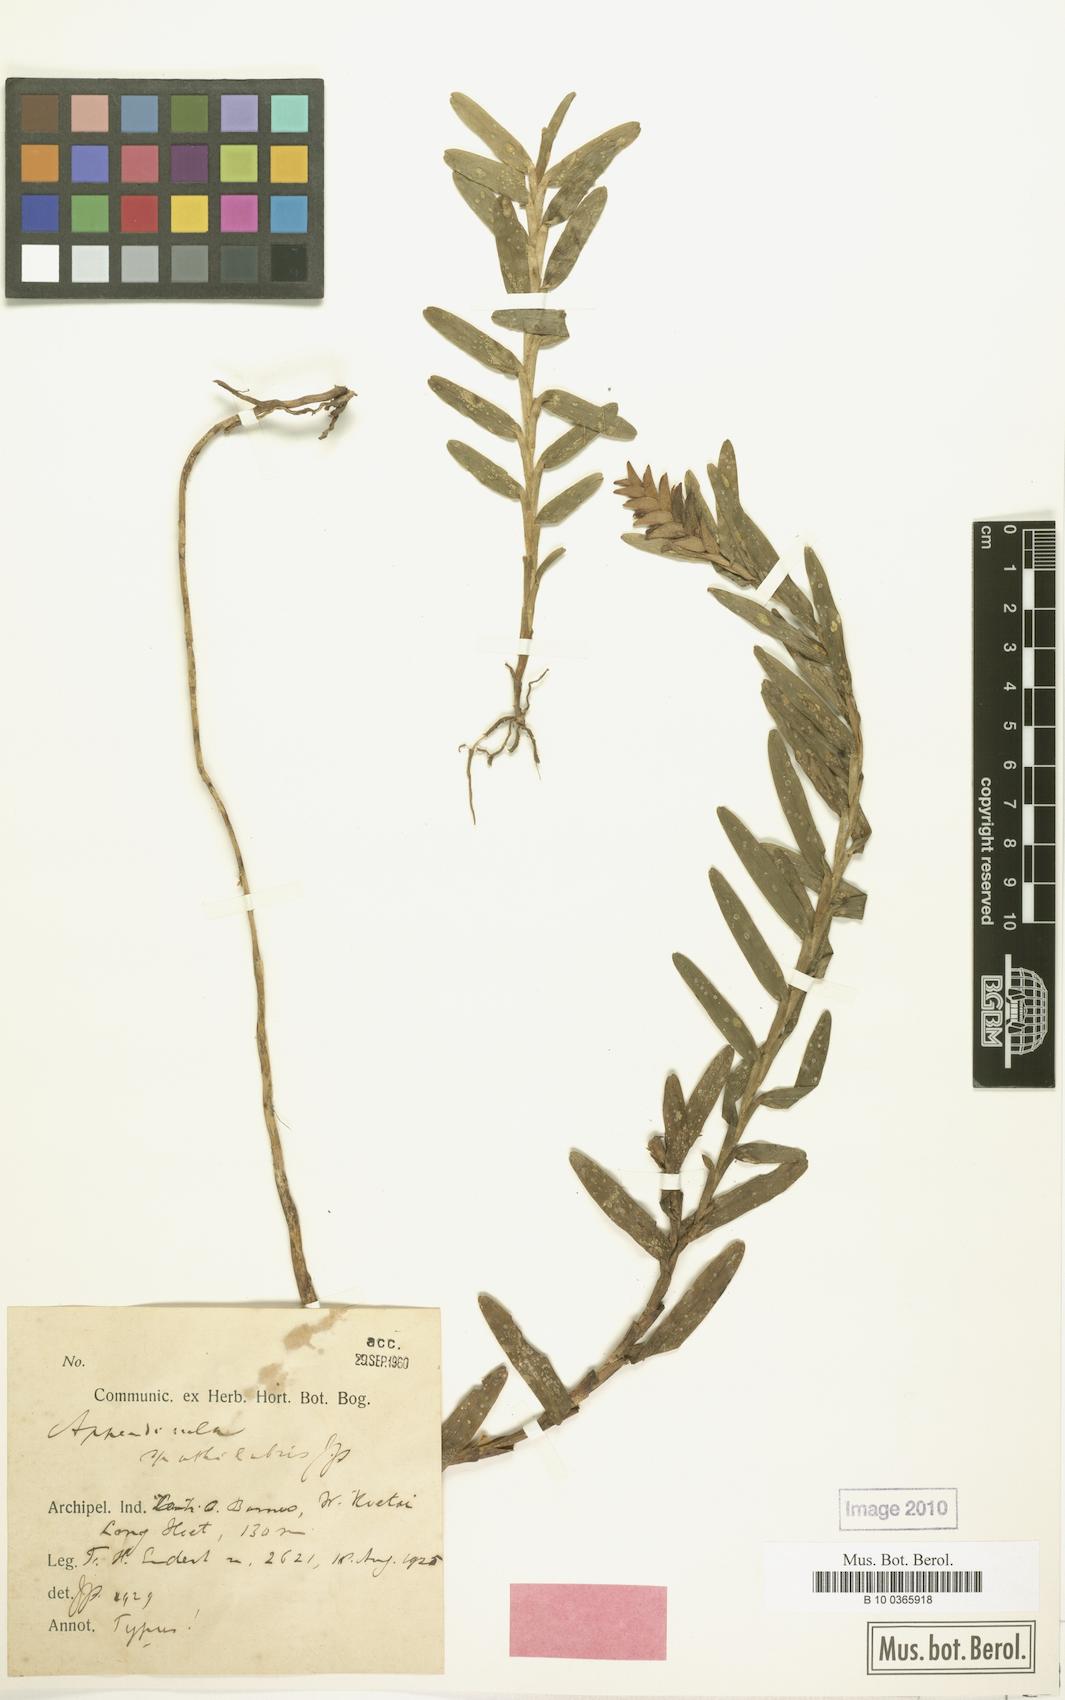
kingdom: Plantae
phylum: Tracheophyta
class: Liliopsida
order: Asparagales
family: Orchidaceae
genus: Appendicula
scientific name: Appendicula spathilabris
